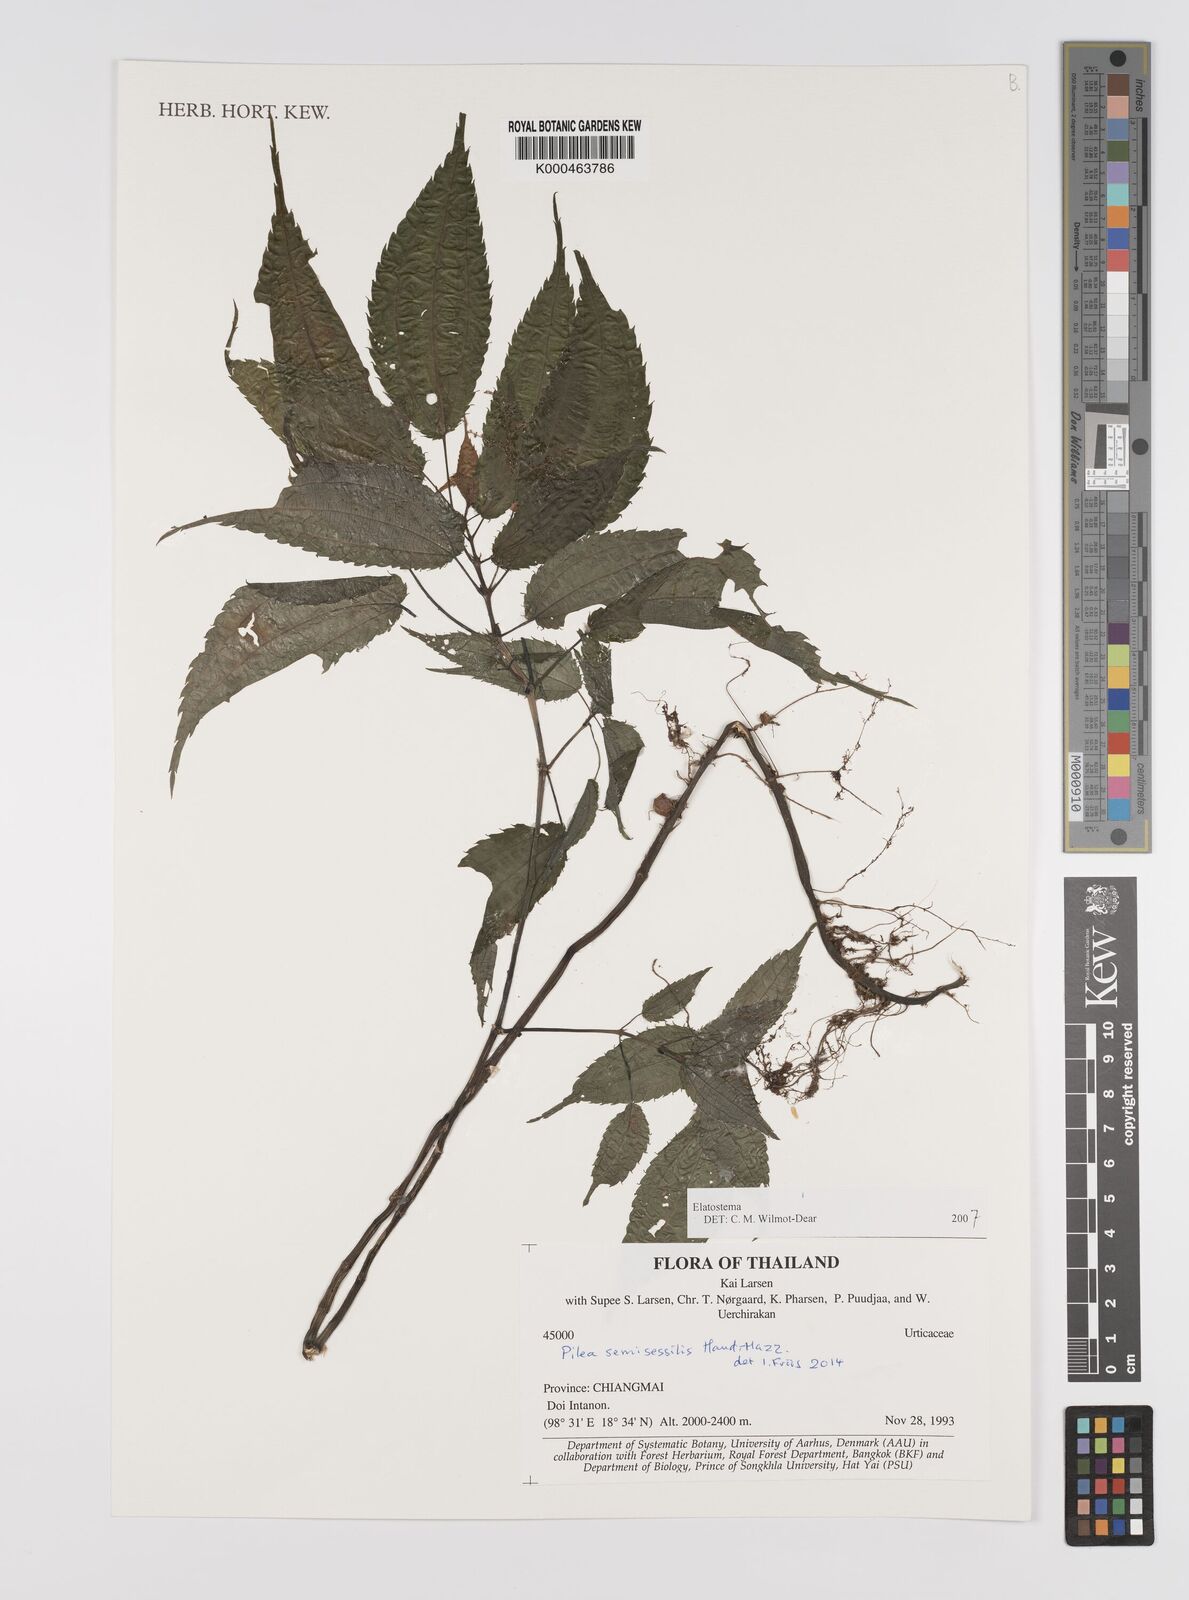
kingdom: Plantae
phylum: Tracheophyta
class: Magnoliopsida
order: Rosales
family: Urticaceae
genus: Elatostema
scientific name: Elatostema
